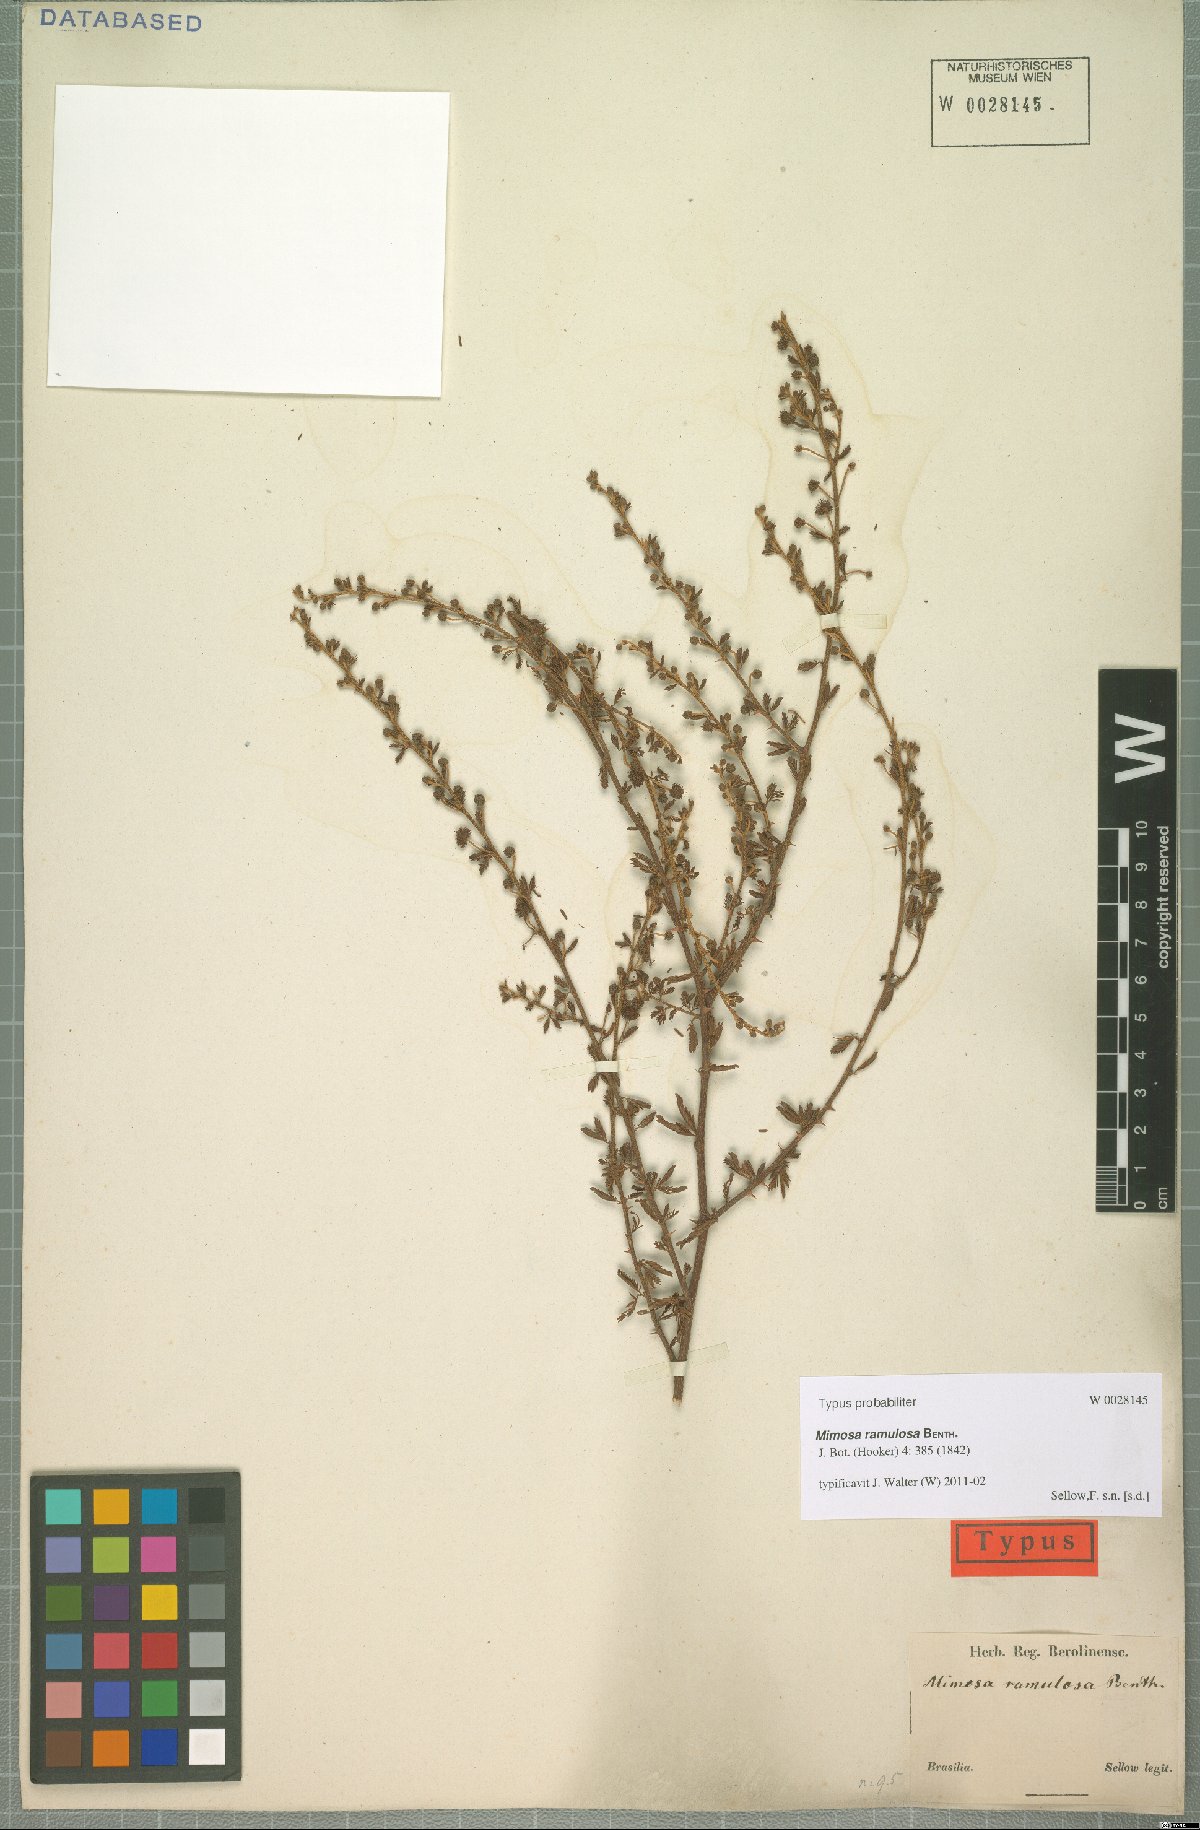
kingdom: Plantae
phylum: Tracheophyta
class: Magnoliopsida
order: Fabales
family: Fabaceae
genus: Mimosa
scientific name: Mimosa ramulosa
